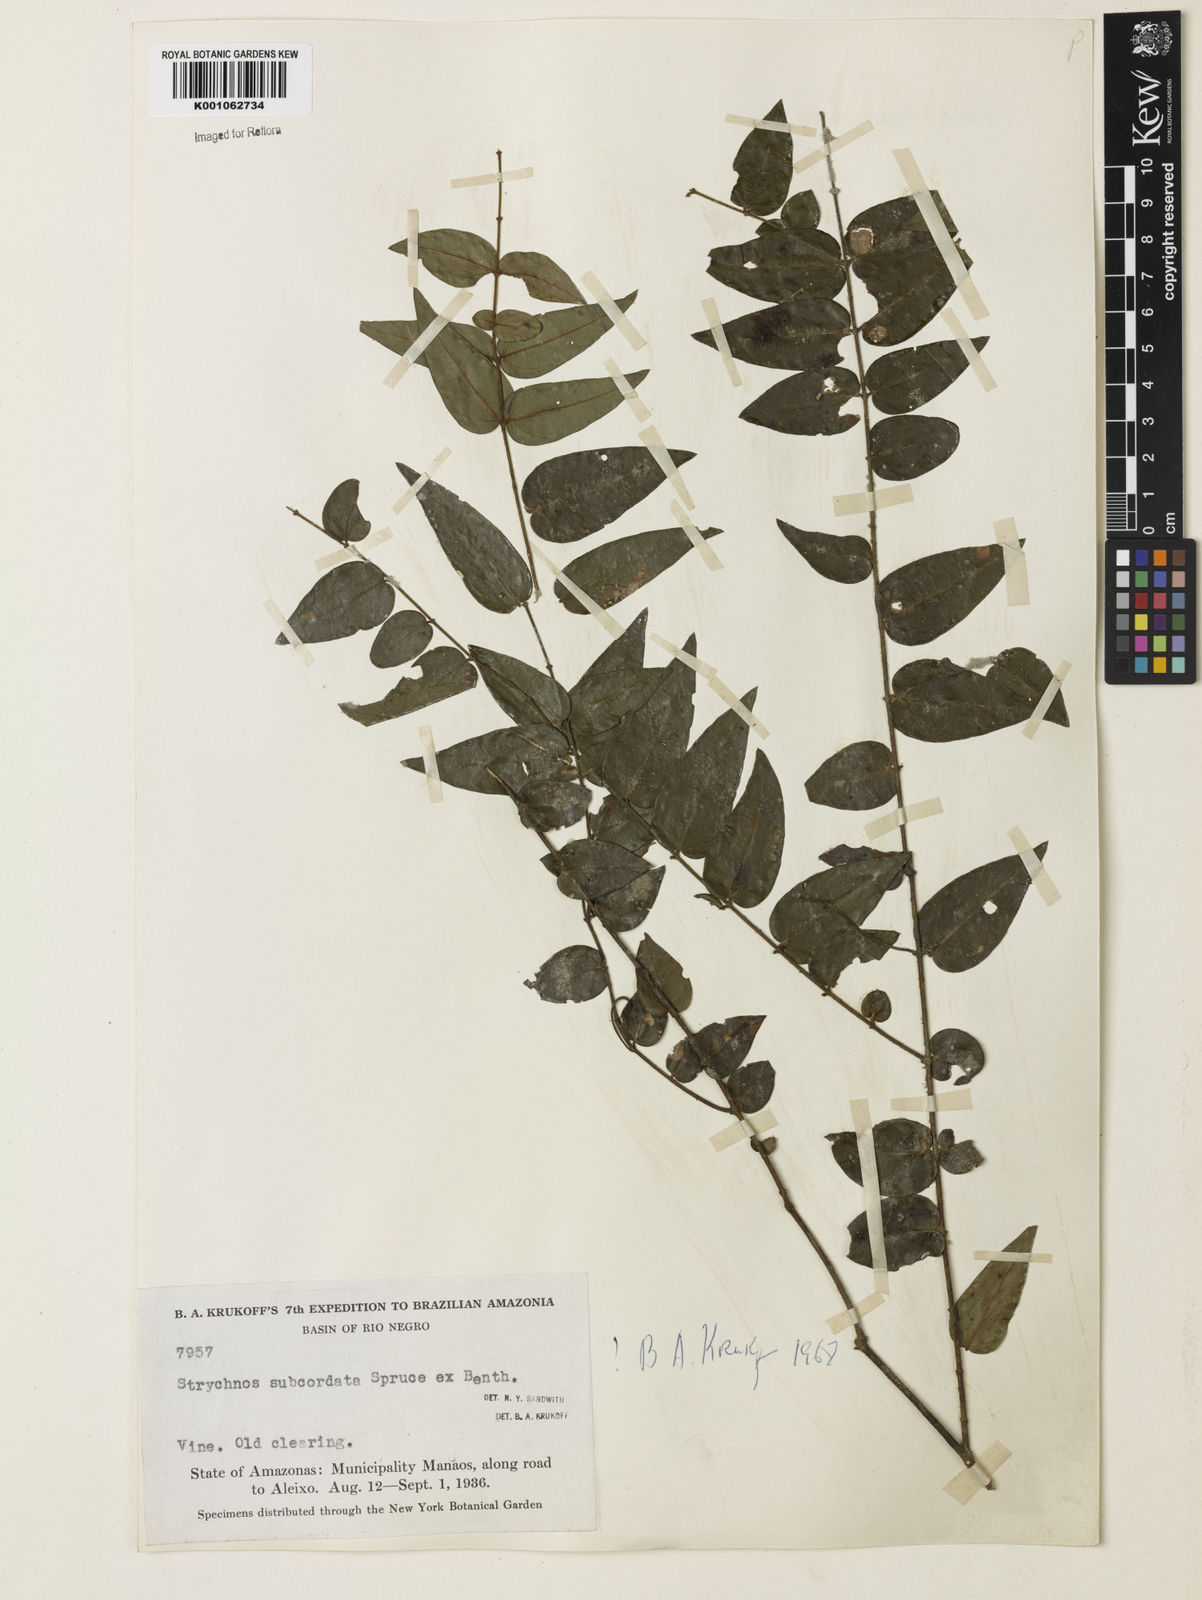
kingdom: Plantae
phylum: Tracheophyta
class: Magnoliopsida
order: Gentianales
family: Loganiaceae
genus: Strychnos
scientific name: Strychnos subcordata
